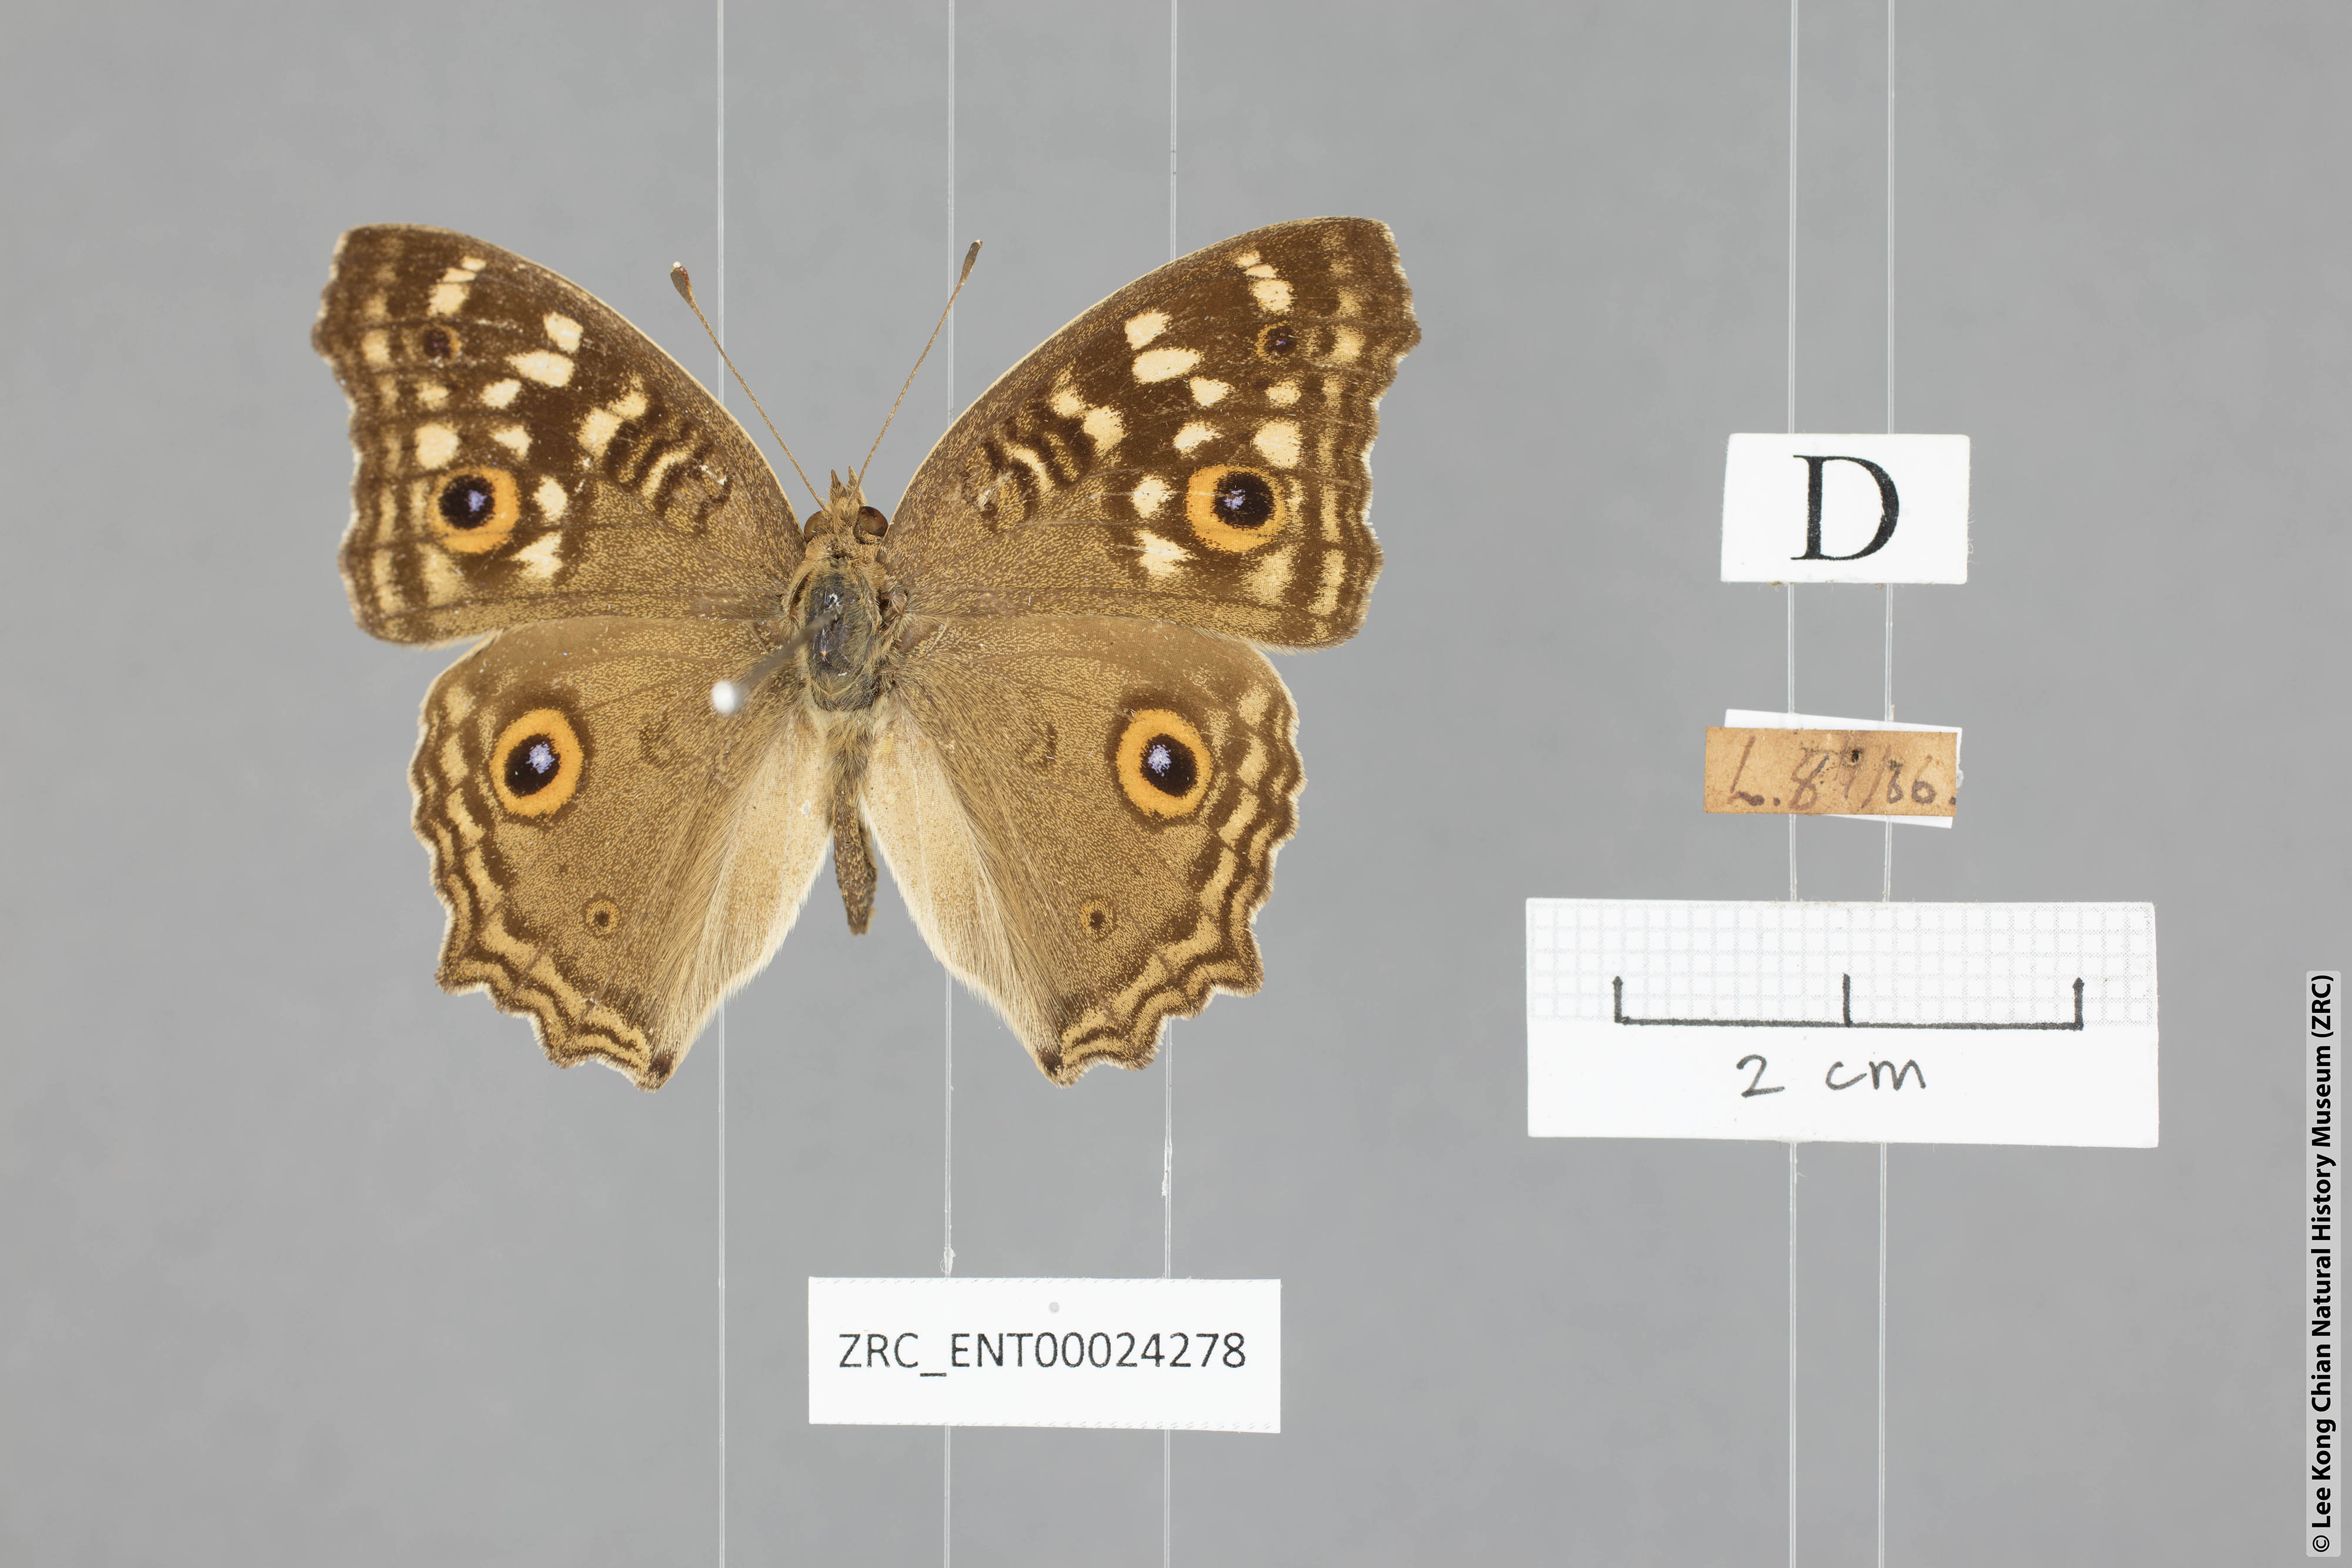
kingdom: Animalia
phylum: Arthropoda
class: Insecta
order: Lepidoptera
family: Nymphalidae
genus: Junonia
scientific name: Junonia lemonias
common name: Lemon pansy
